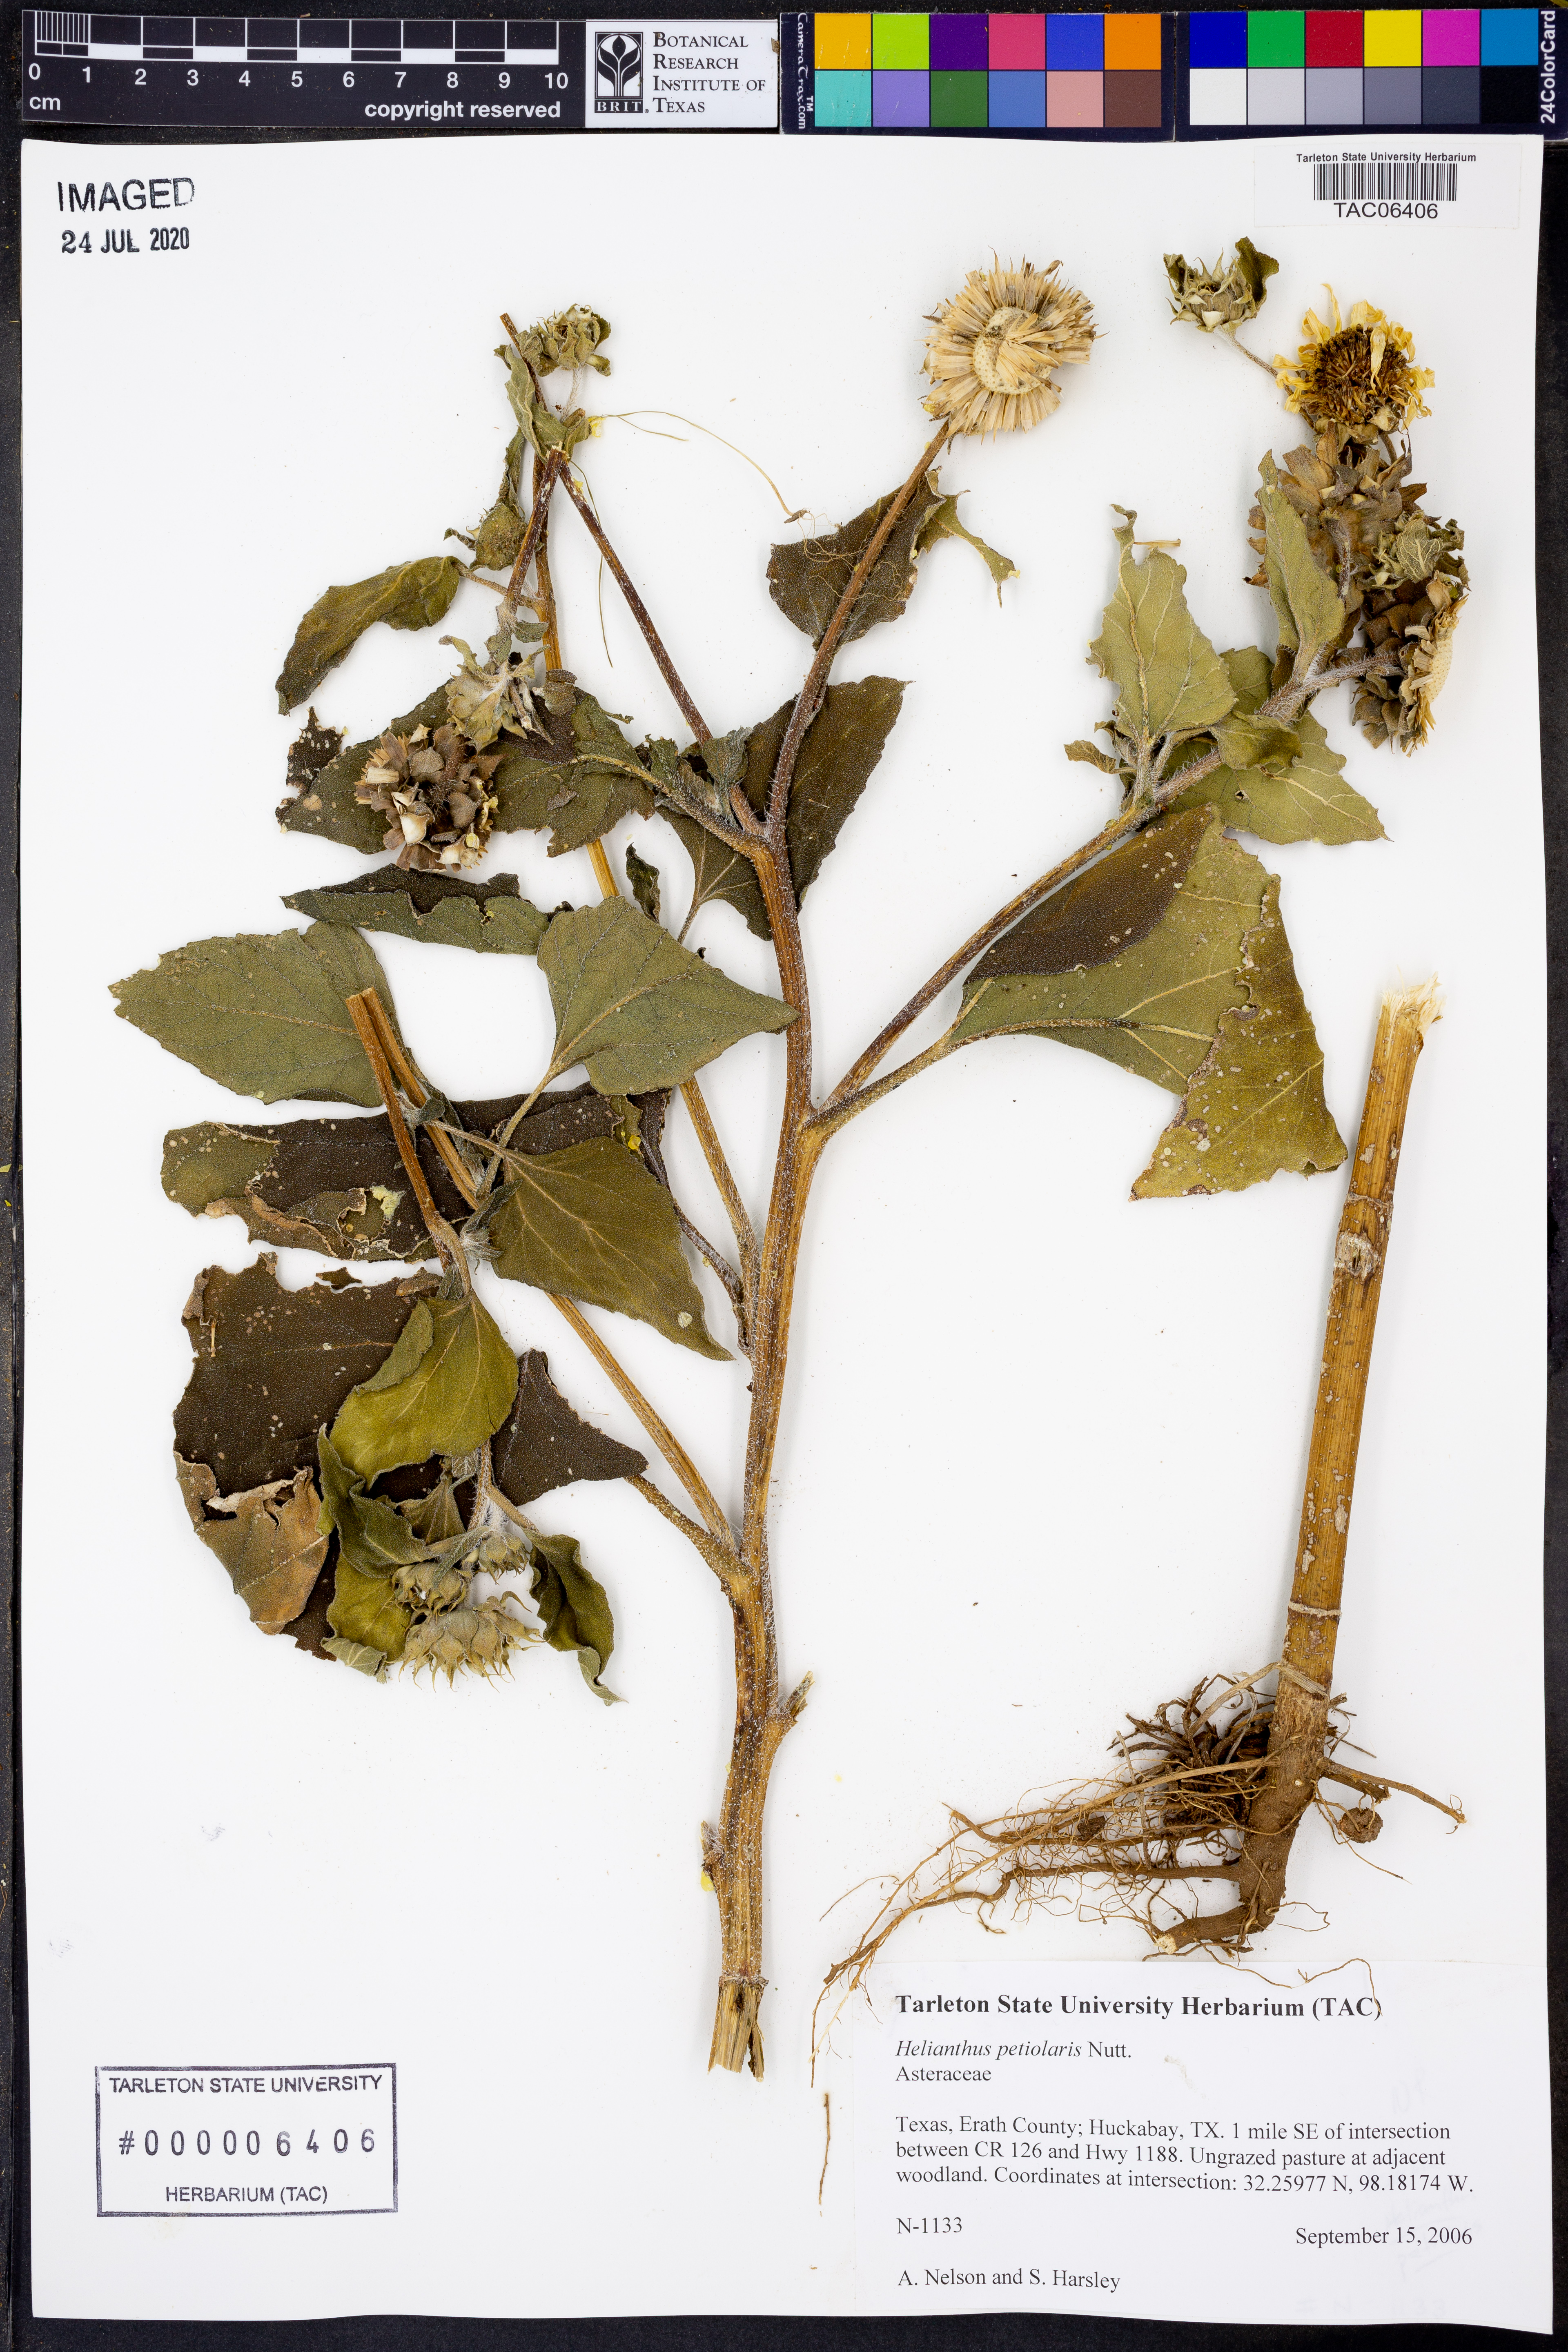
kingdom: Plantae
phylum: Tracheophyta
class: Magnoliopsida
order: Asterales
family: Asteraceae
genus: Helianthus
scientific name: Helianthus petiolaris
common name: Lesser sunflower
